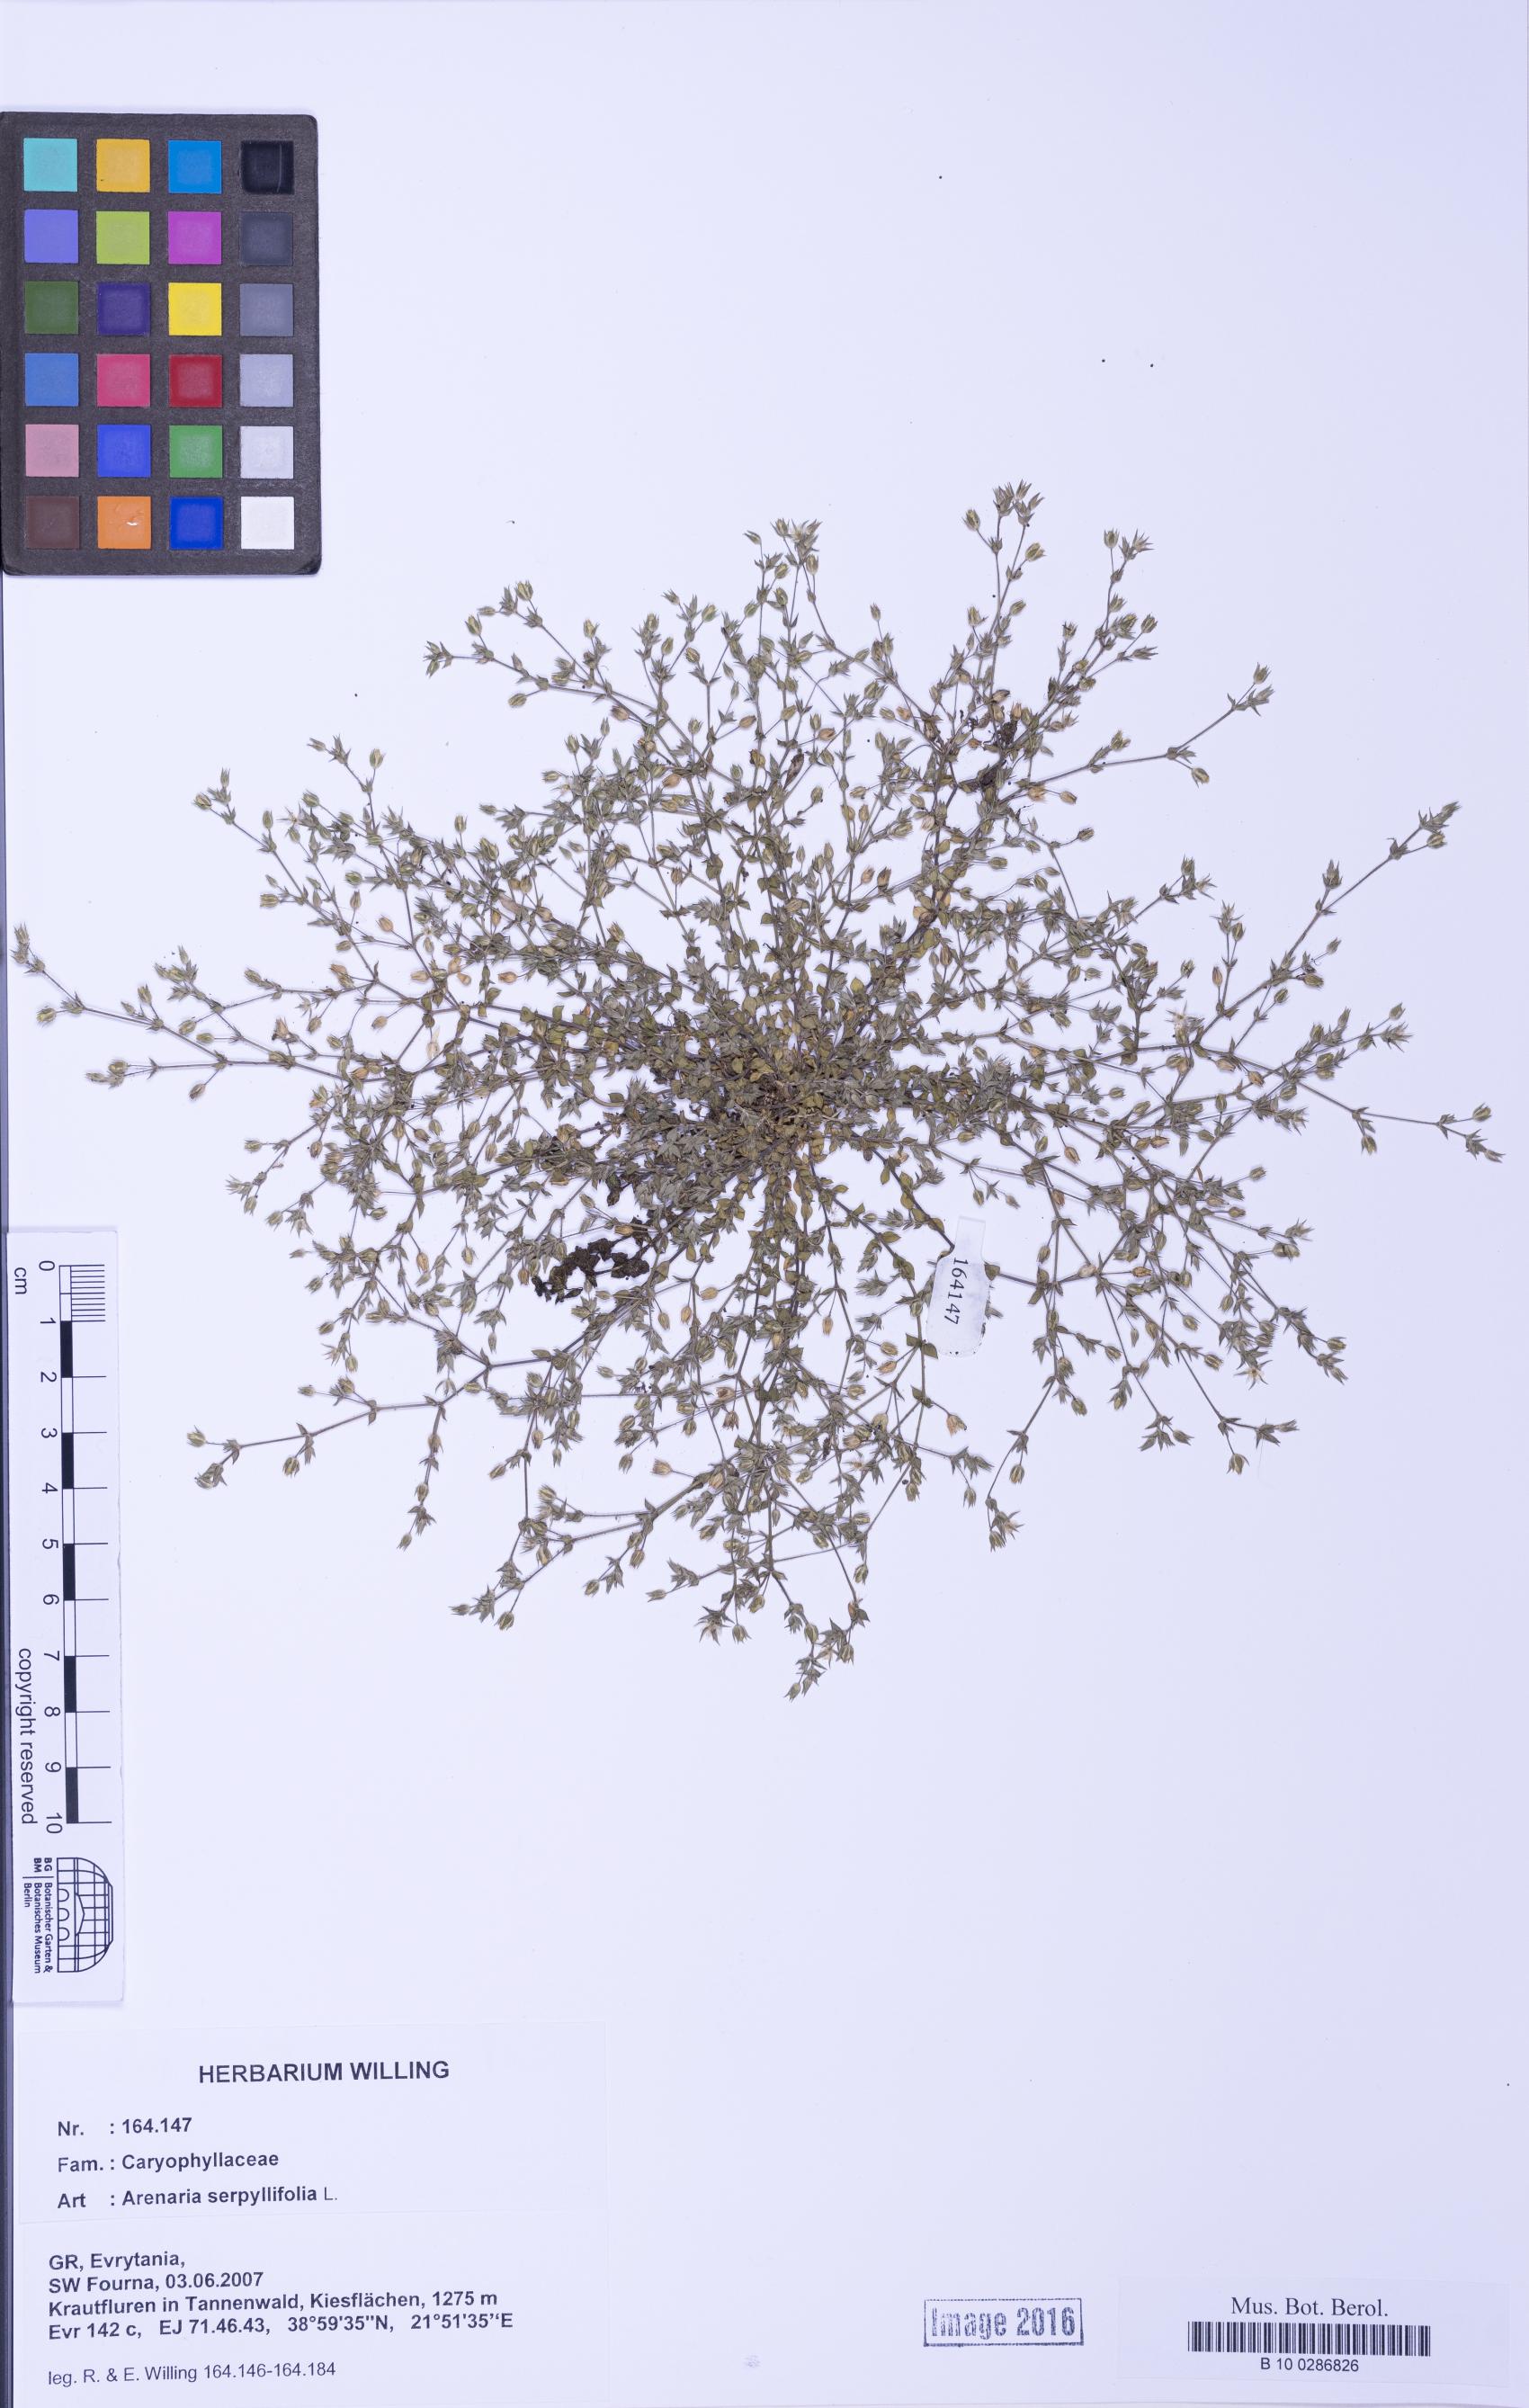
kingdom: Plantae
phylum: Tracheophyta
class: Magnoliopsida
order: Caryophyllales
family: Caryophyllaceae
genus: Arenaria
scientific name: Arenaria serpyllifolia
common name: Thyme-leaved sandwort
